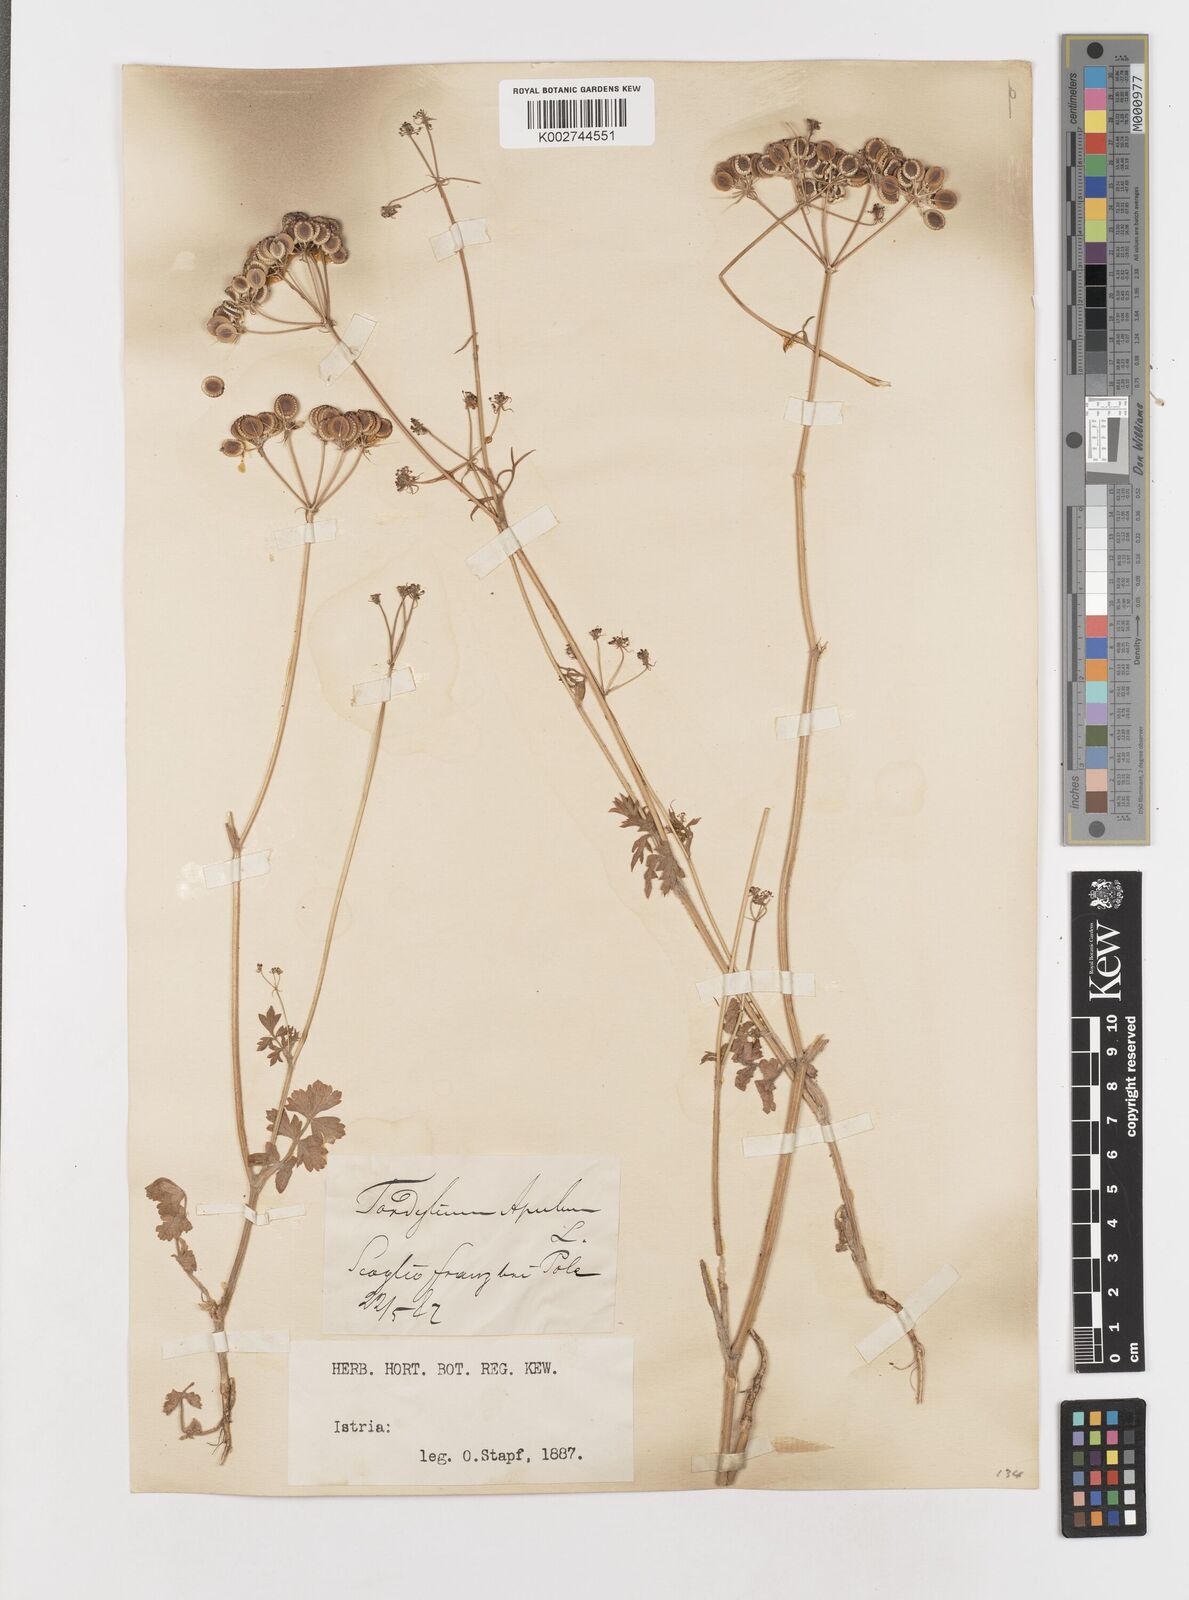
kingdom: Plantae
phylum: Tracheophyta
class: Magnoliopsida
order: Apiales
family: Apiaceae
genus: Tordylium
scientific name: Tordylium apulum
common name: Mediterranean hartwort
